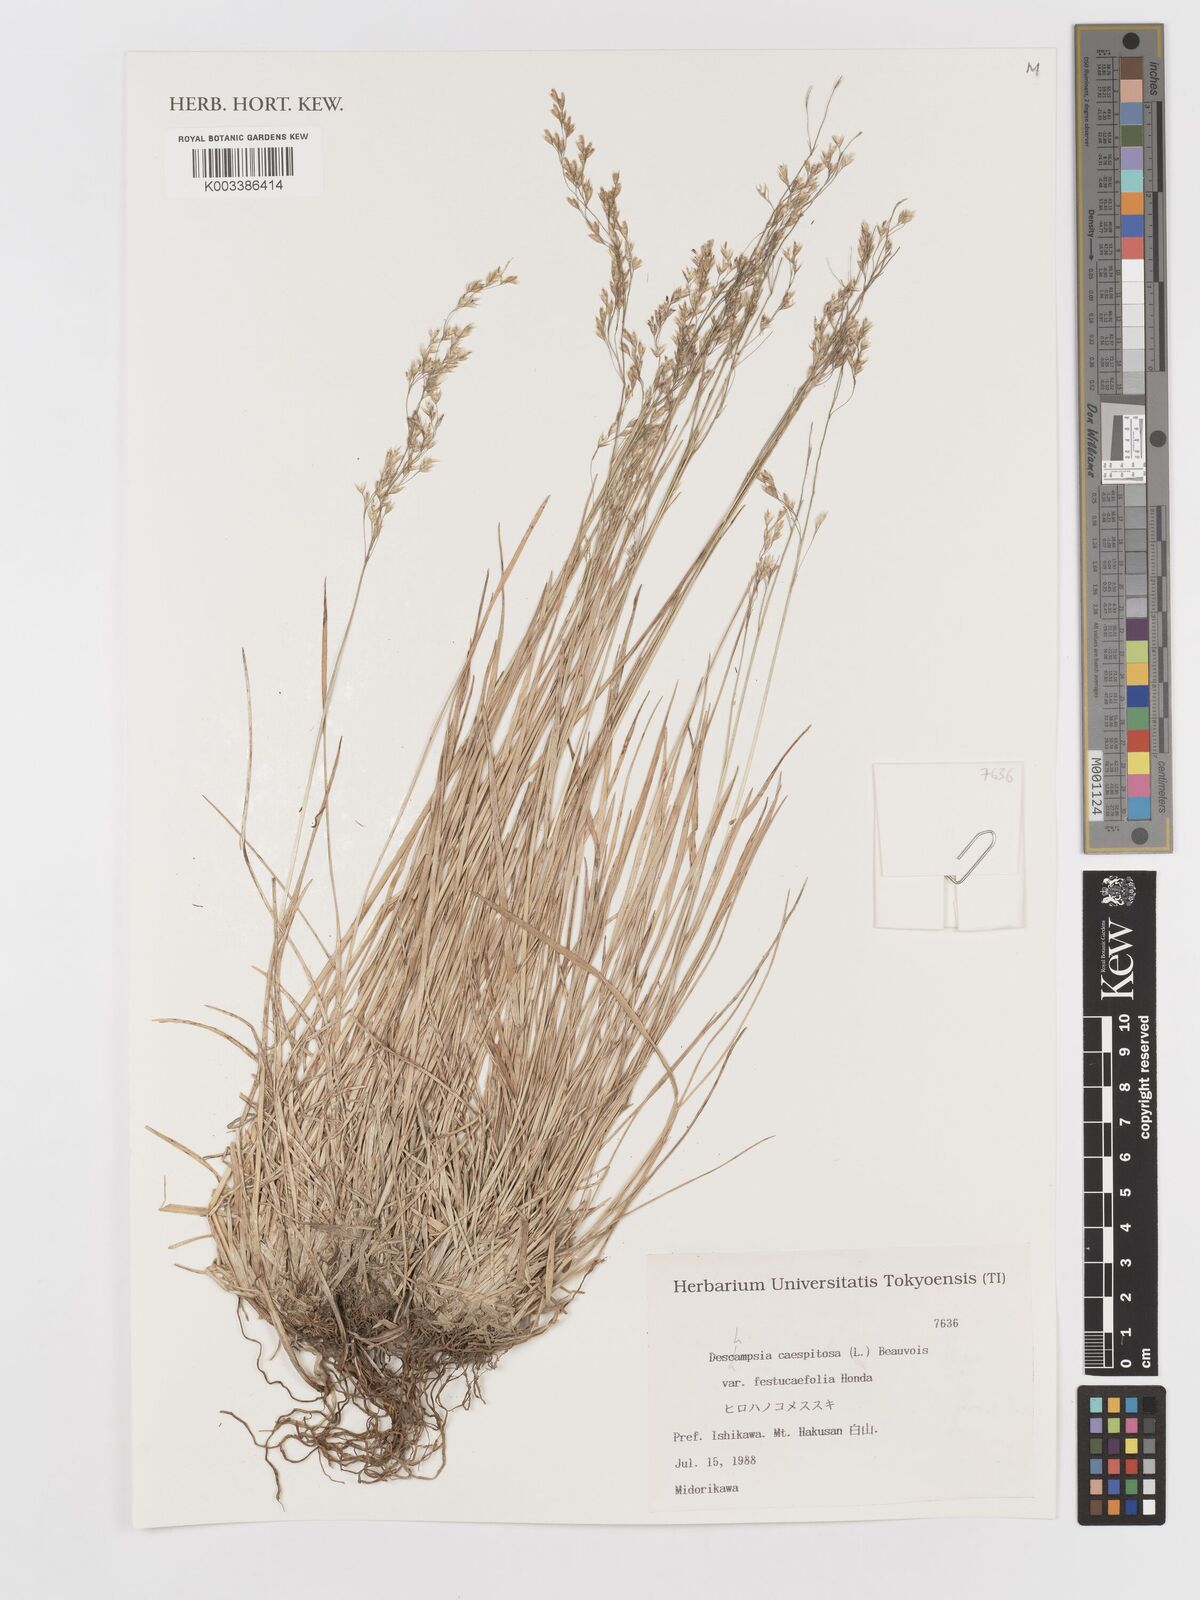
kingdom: Plantae
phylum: Tracheophyta
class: Liliopsida
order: Poales
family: Poaceae
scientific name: Poaceae
